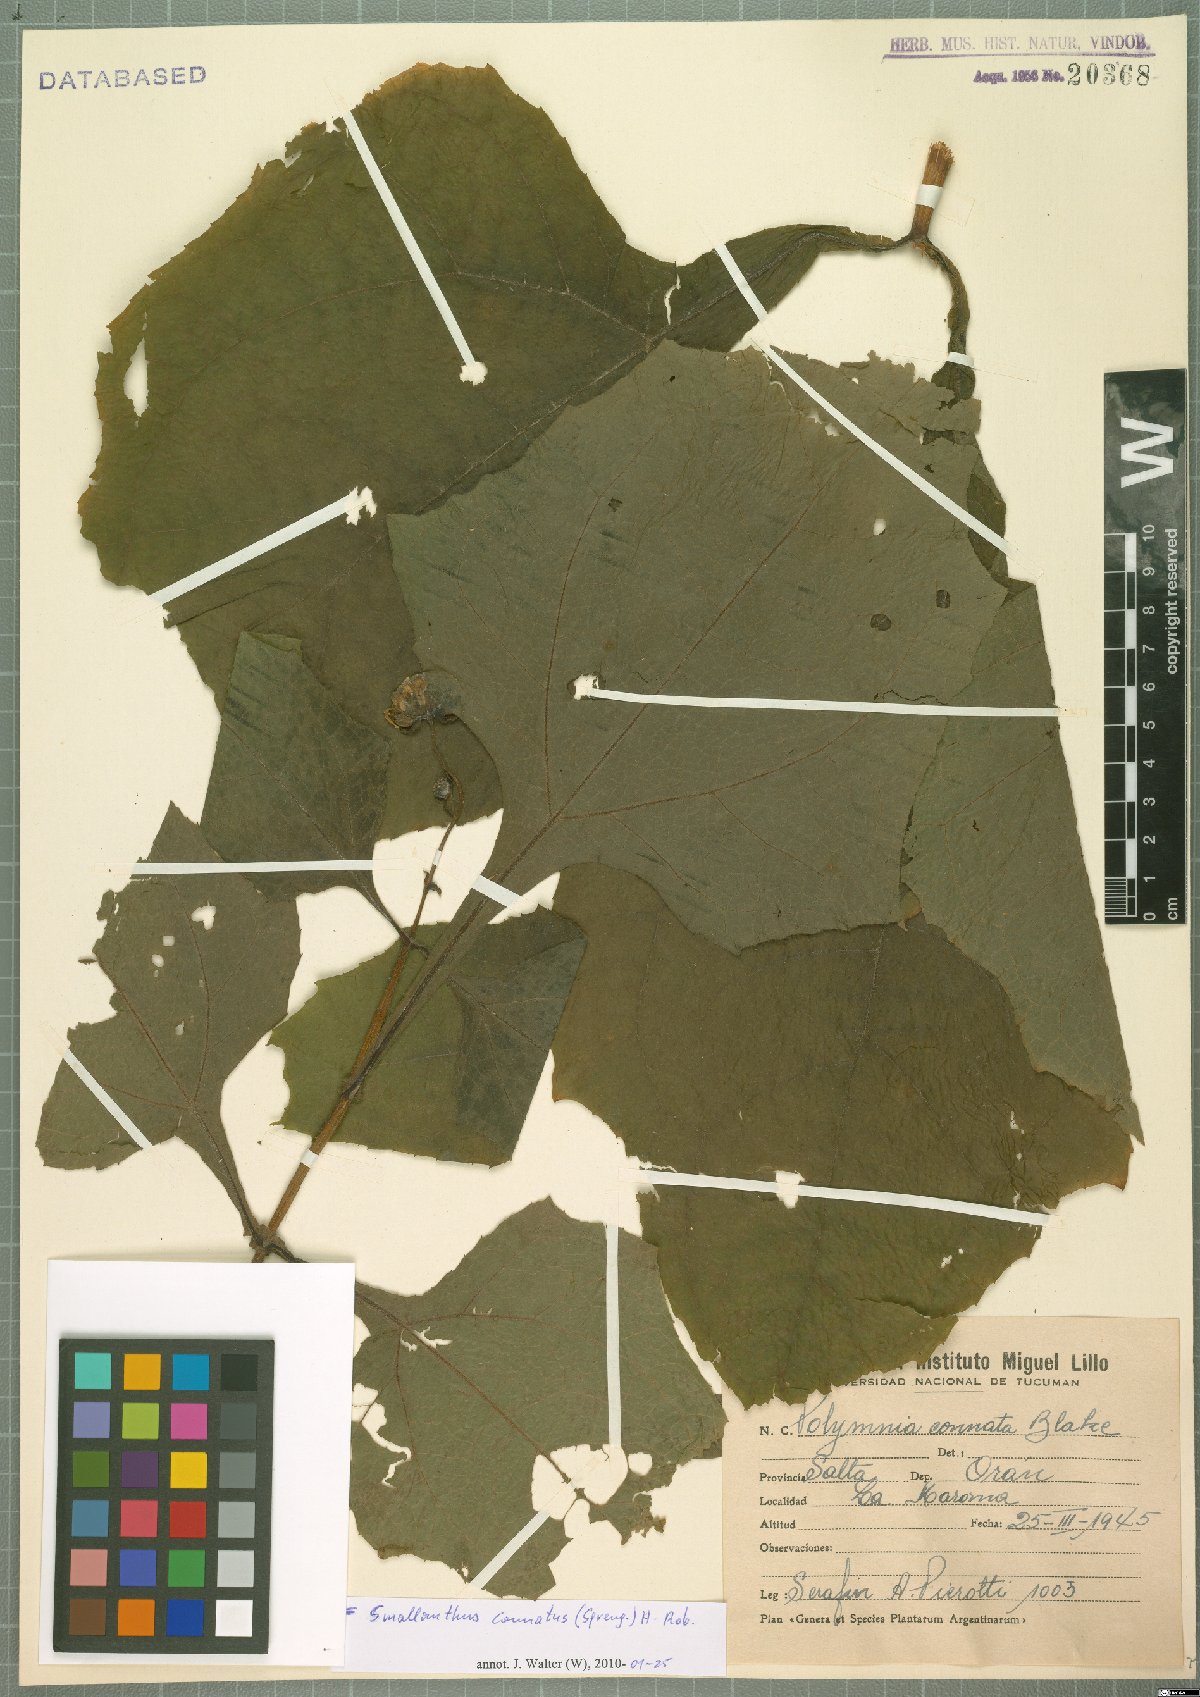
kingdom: Plantae
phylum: Tracheophyta
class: Magnoliopsida
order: Asterales
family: Asteraceae
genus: Smallanthus
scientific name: Smallanthus connatus
